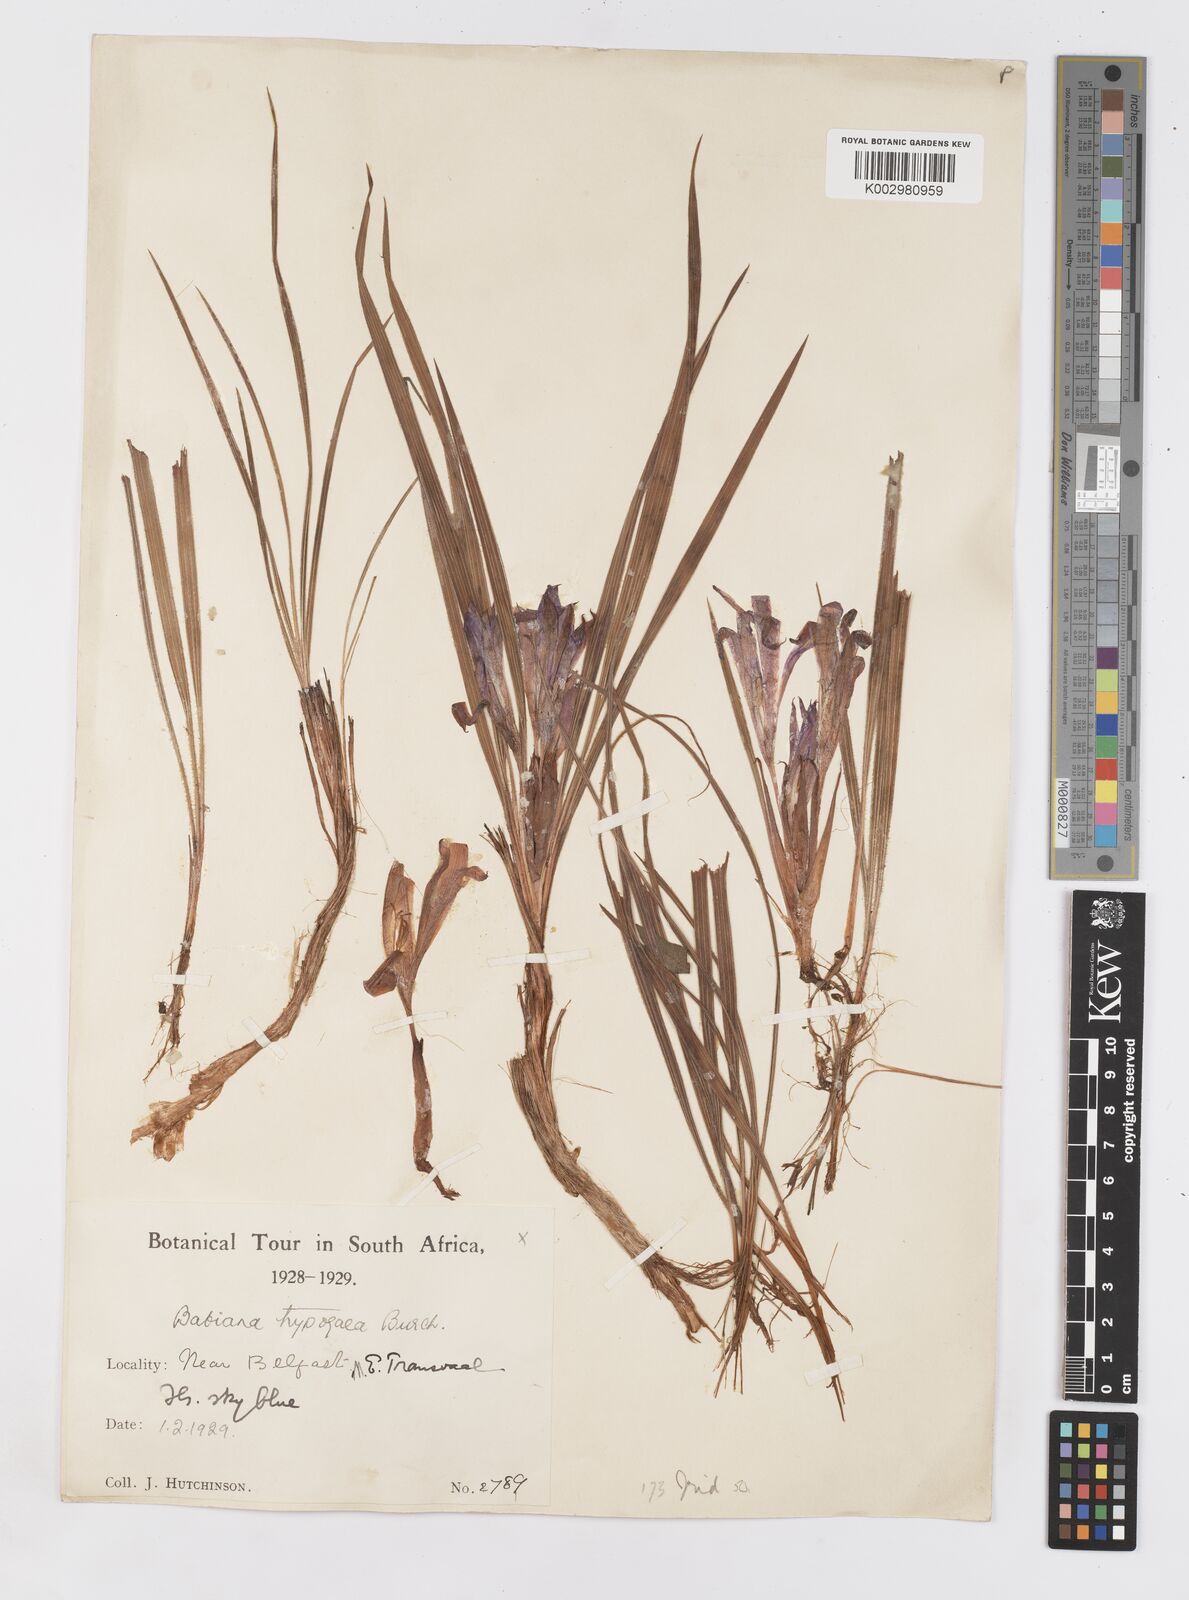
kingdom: Plantae
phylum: Tracheophyta
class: Liliopsida
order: Asparagales
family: Iridaceae
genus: Babiana
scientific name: Babiana bainesii
